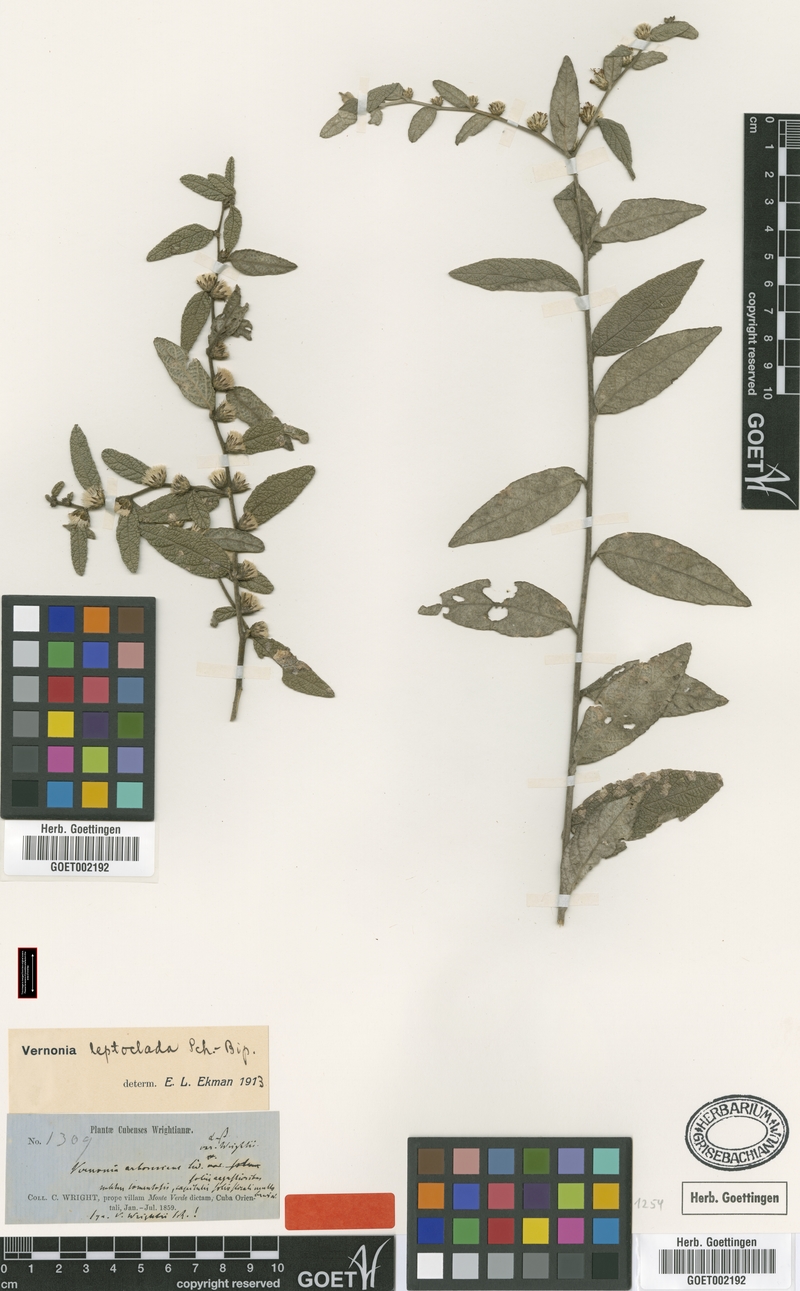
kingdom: Plantae
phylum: Tracheophyta
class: Magnoliopsida
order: Asterales
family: Asteraceae
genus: Lepidaploa
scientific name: Lepidaploa leptoclada
